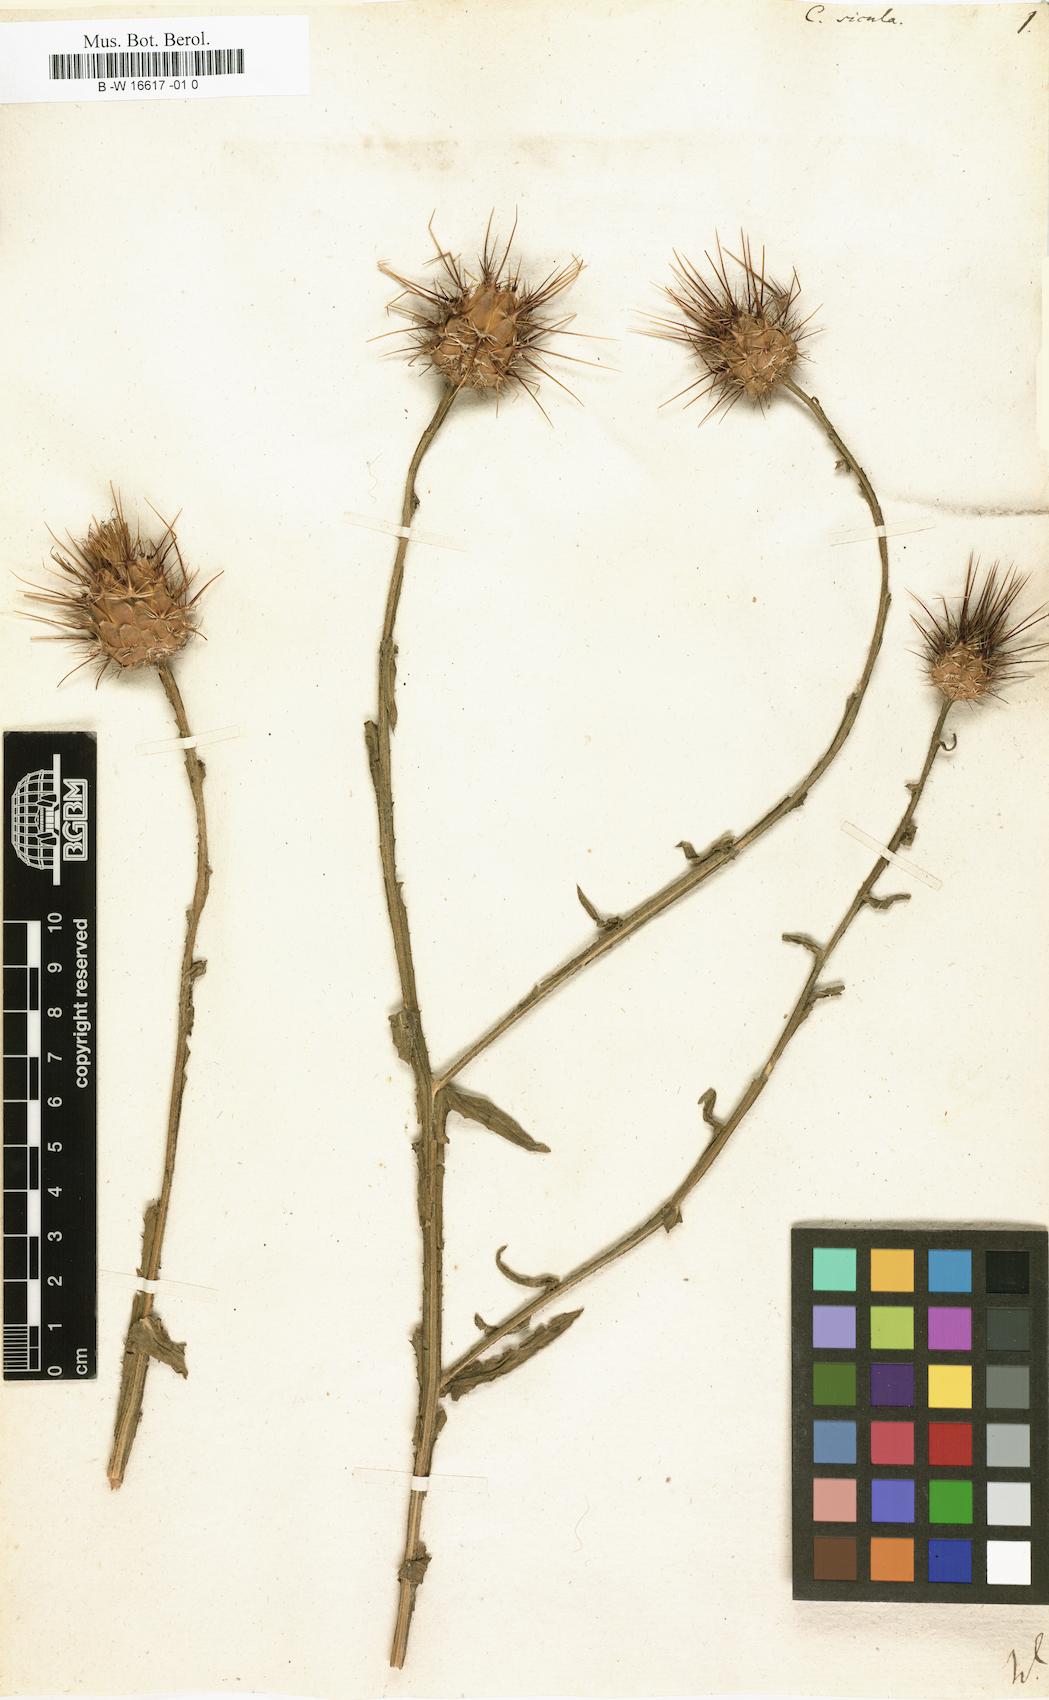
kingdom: Plantae
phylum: Tracheophyta
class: Magnoliopsida
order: Asterales
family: Asteraceae
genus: Centaurea
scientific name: Centaurea sicula
